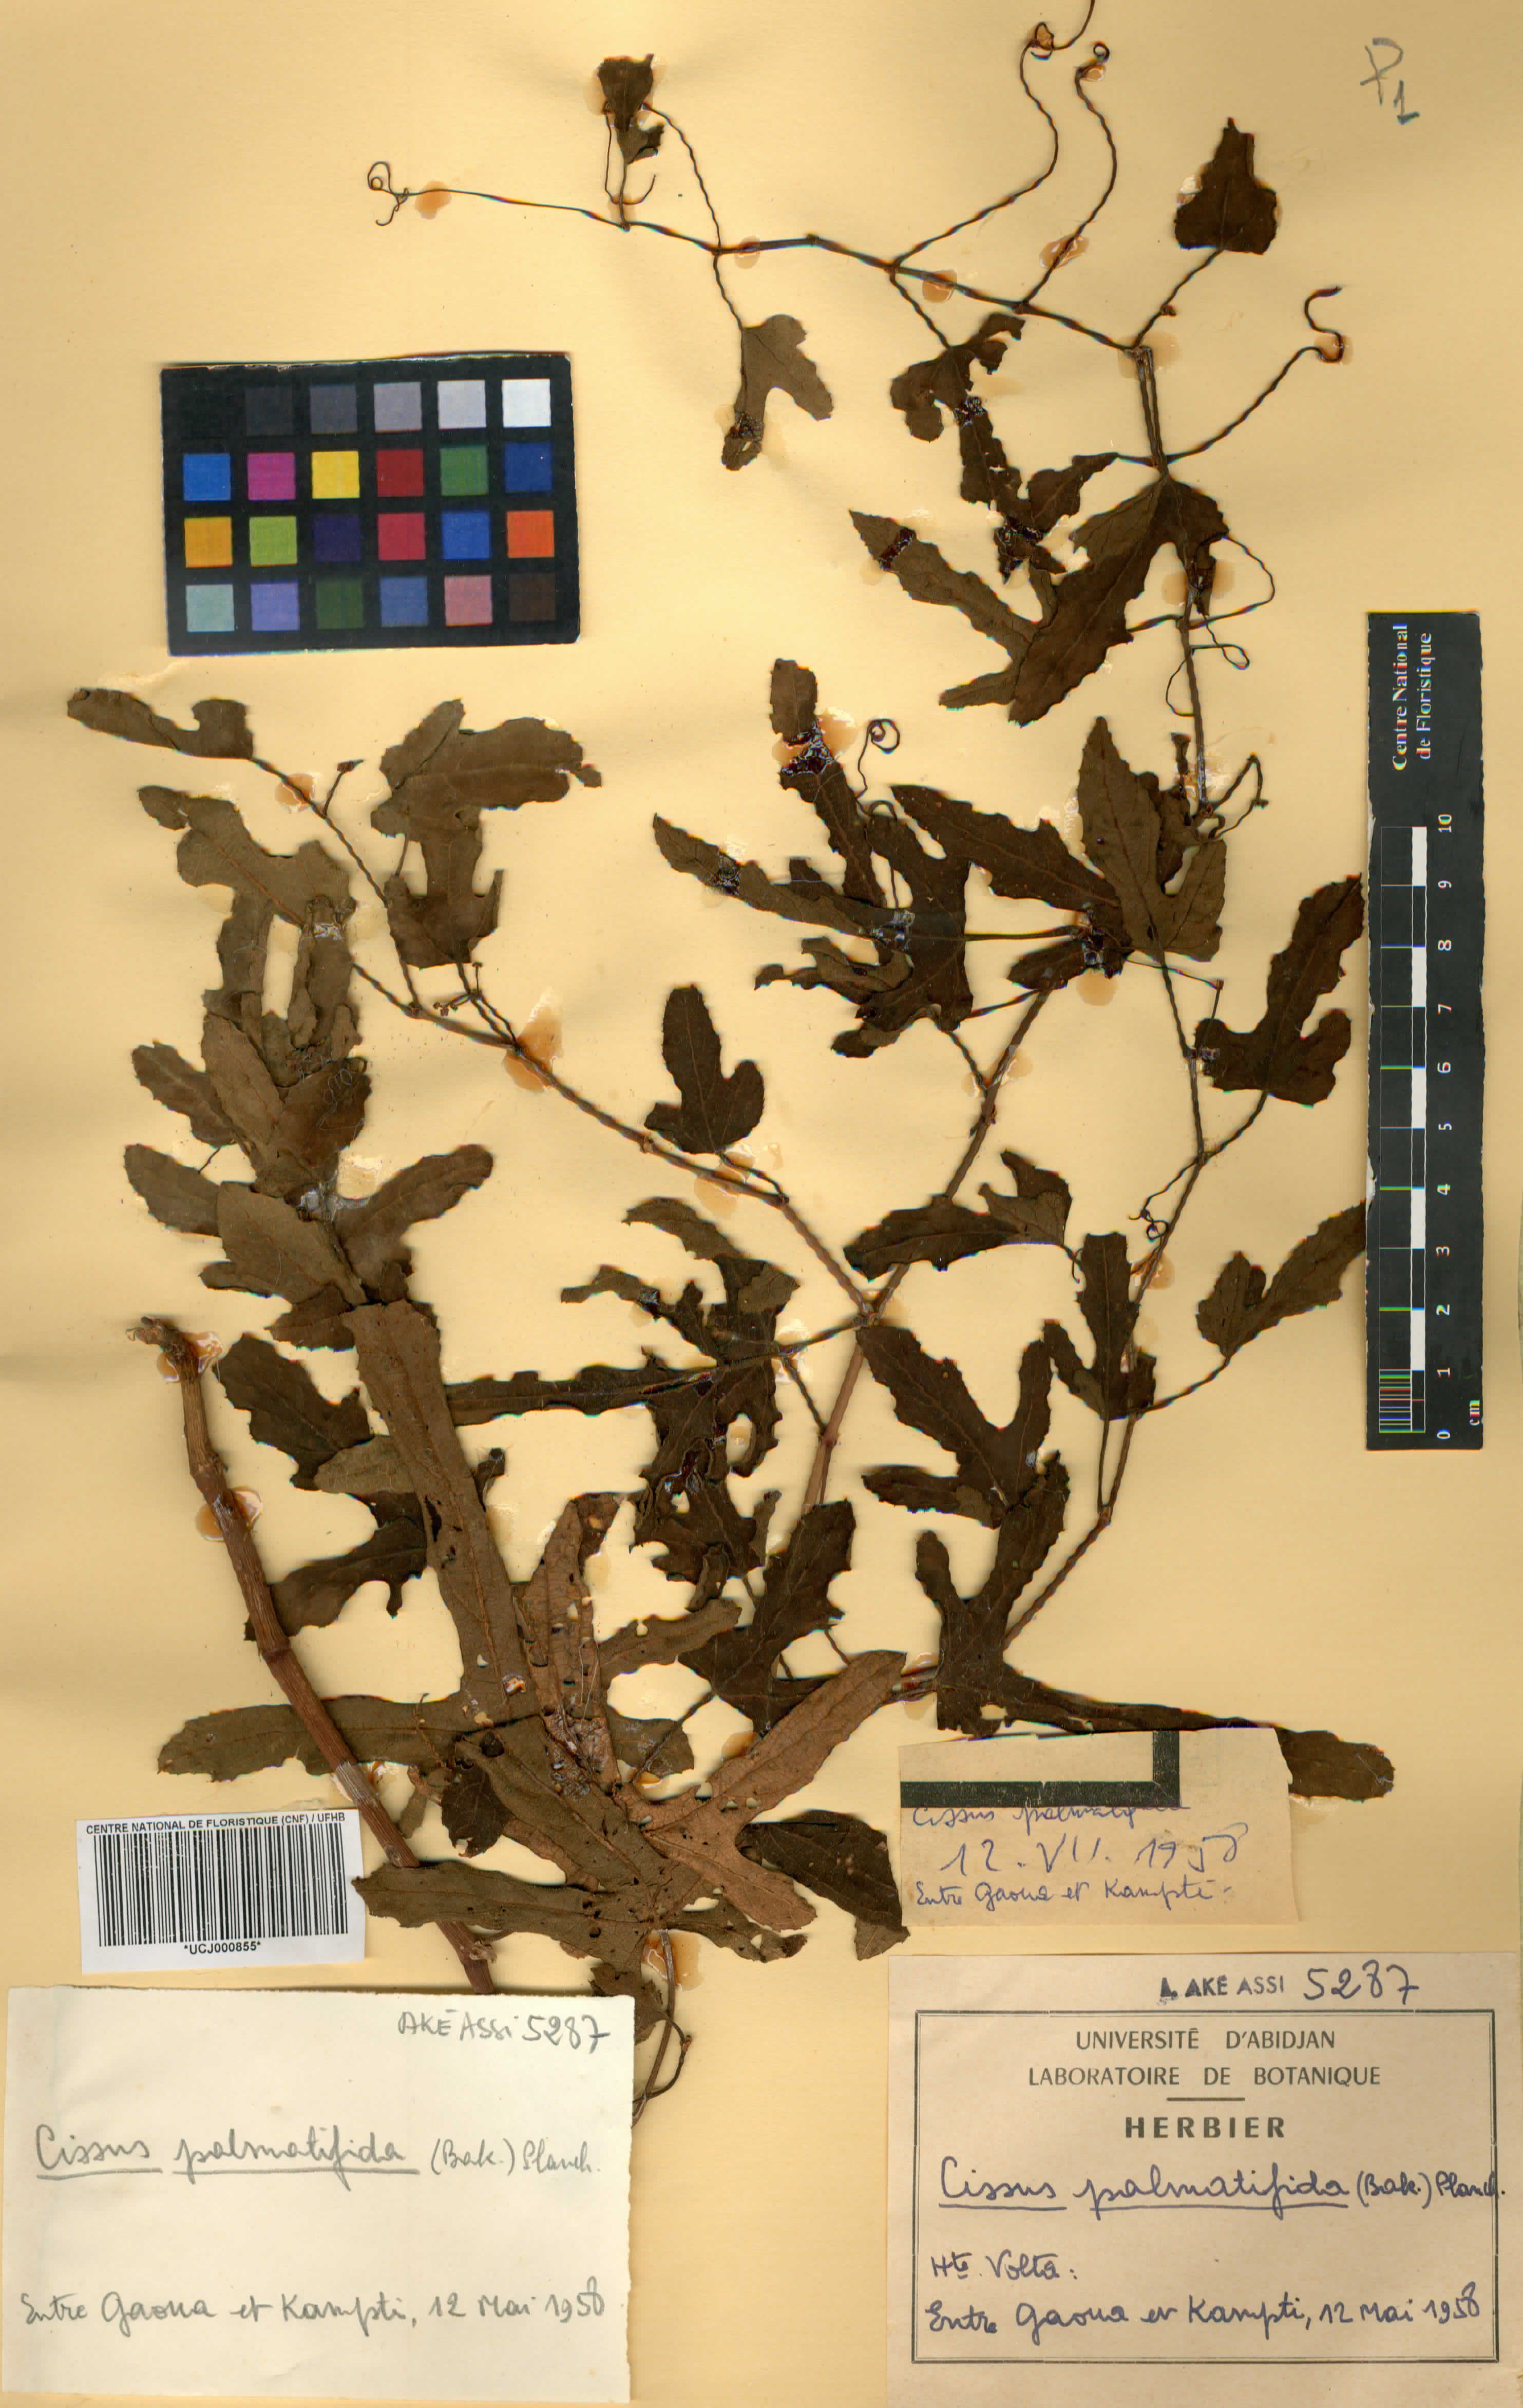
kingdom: Plantae
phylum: Tracheophyta
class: Magnoliopsida
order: Vitales
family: Vitaceae
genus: Cissus
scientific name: Cissus palmatifida
